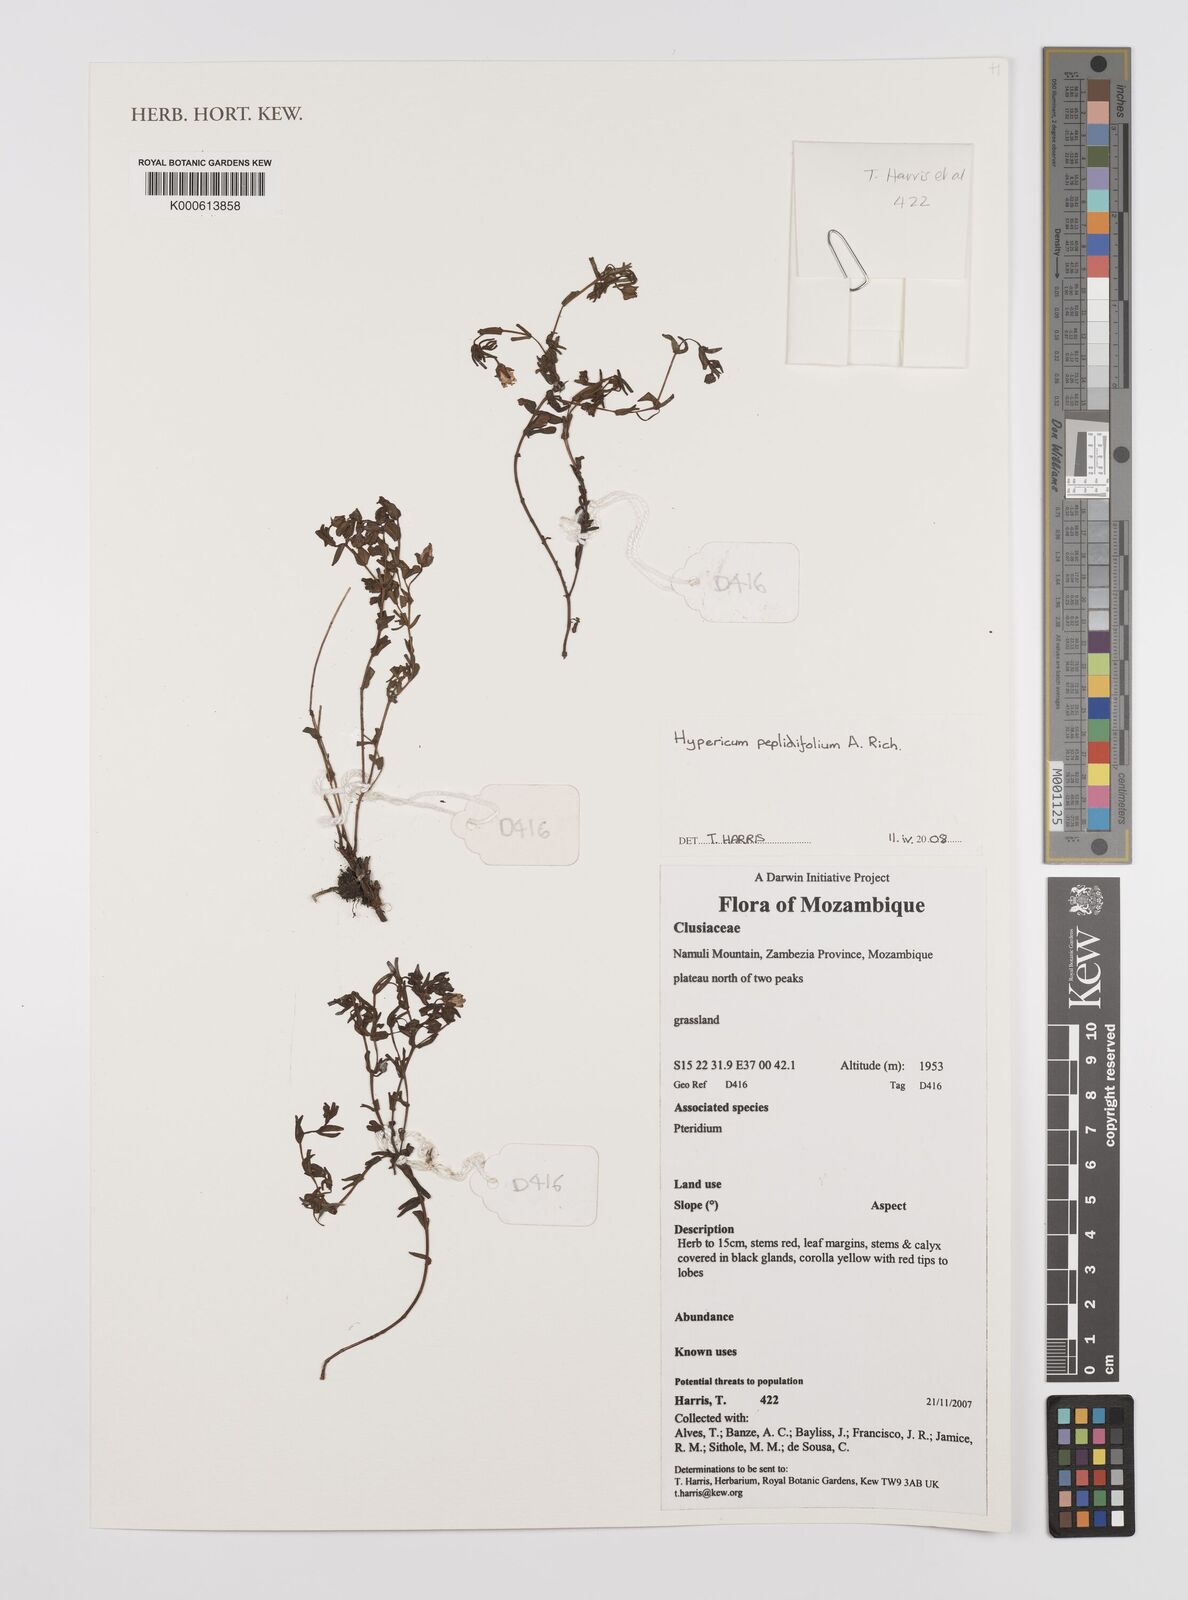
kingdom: Plantae
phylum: Tracheophyta
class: Magnoliopsida
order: Malpighiales
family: Hypericaceae
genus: Hypericum
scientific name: Hypericum peplidifolium
